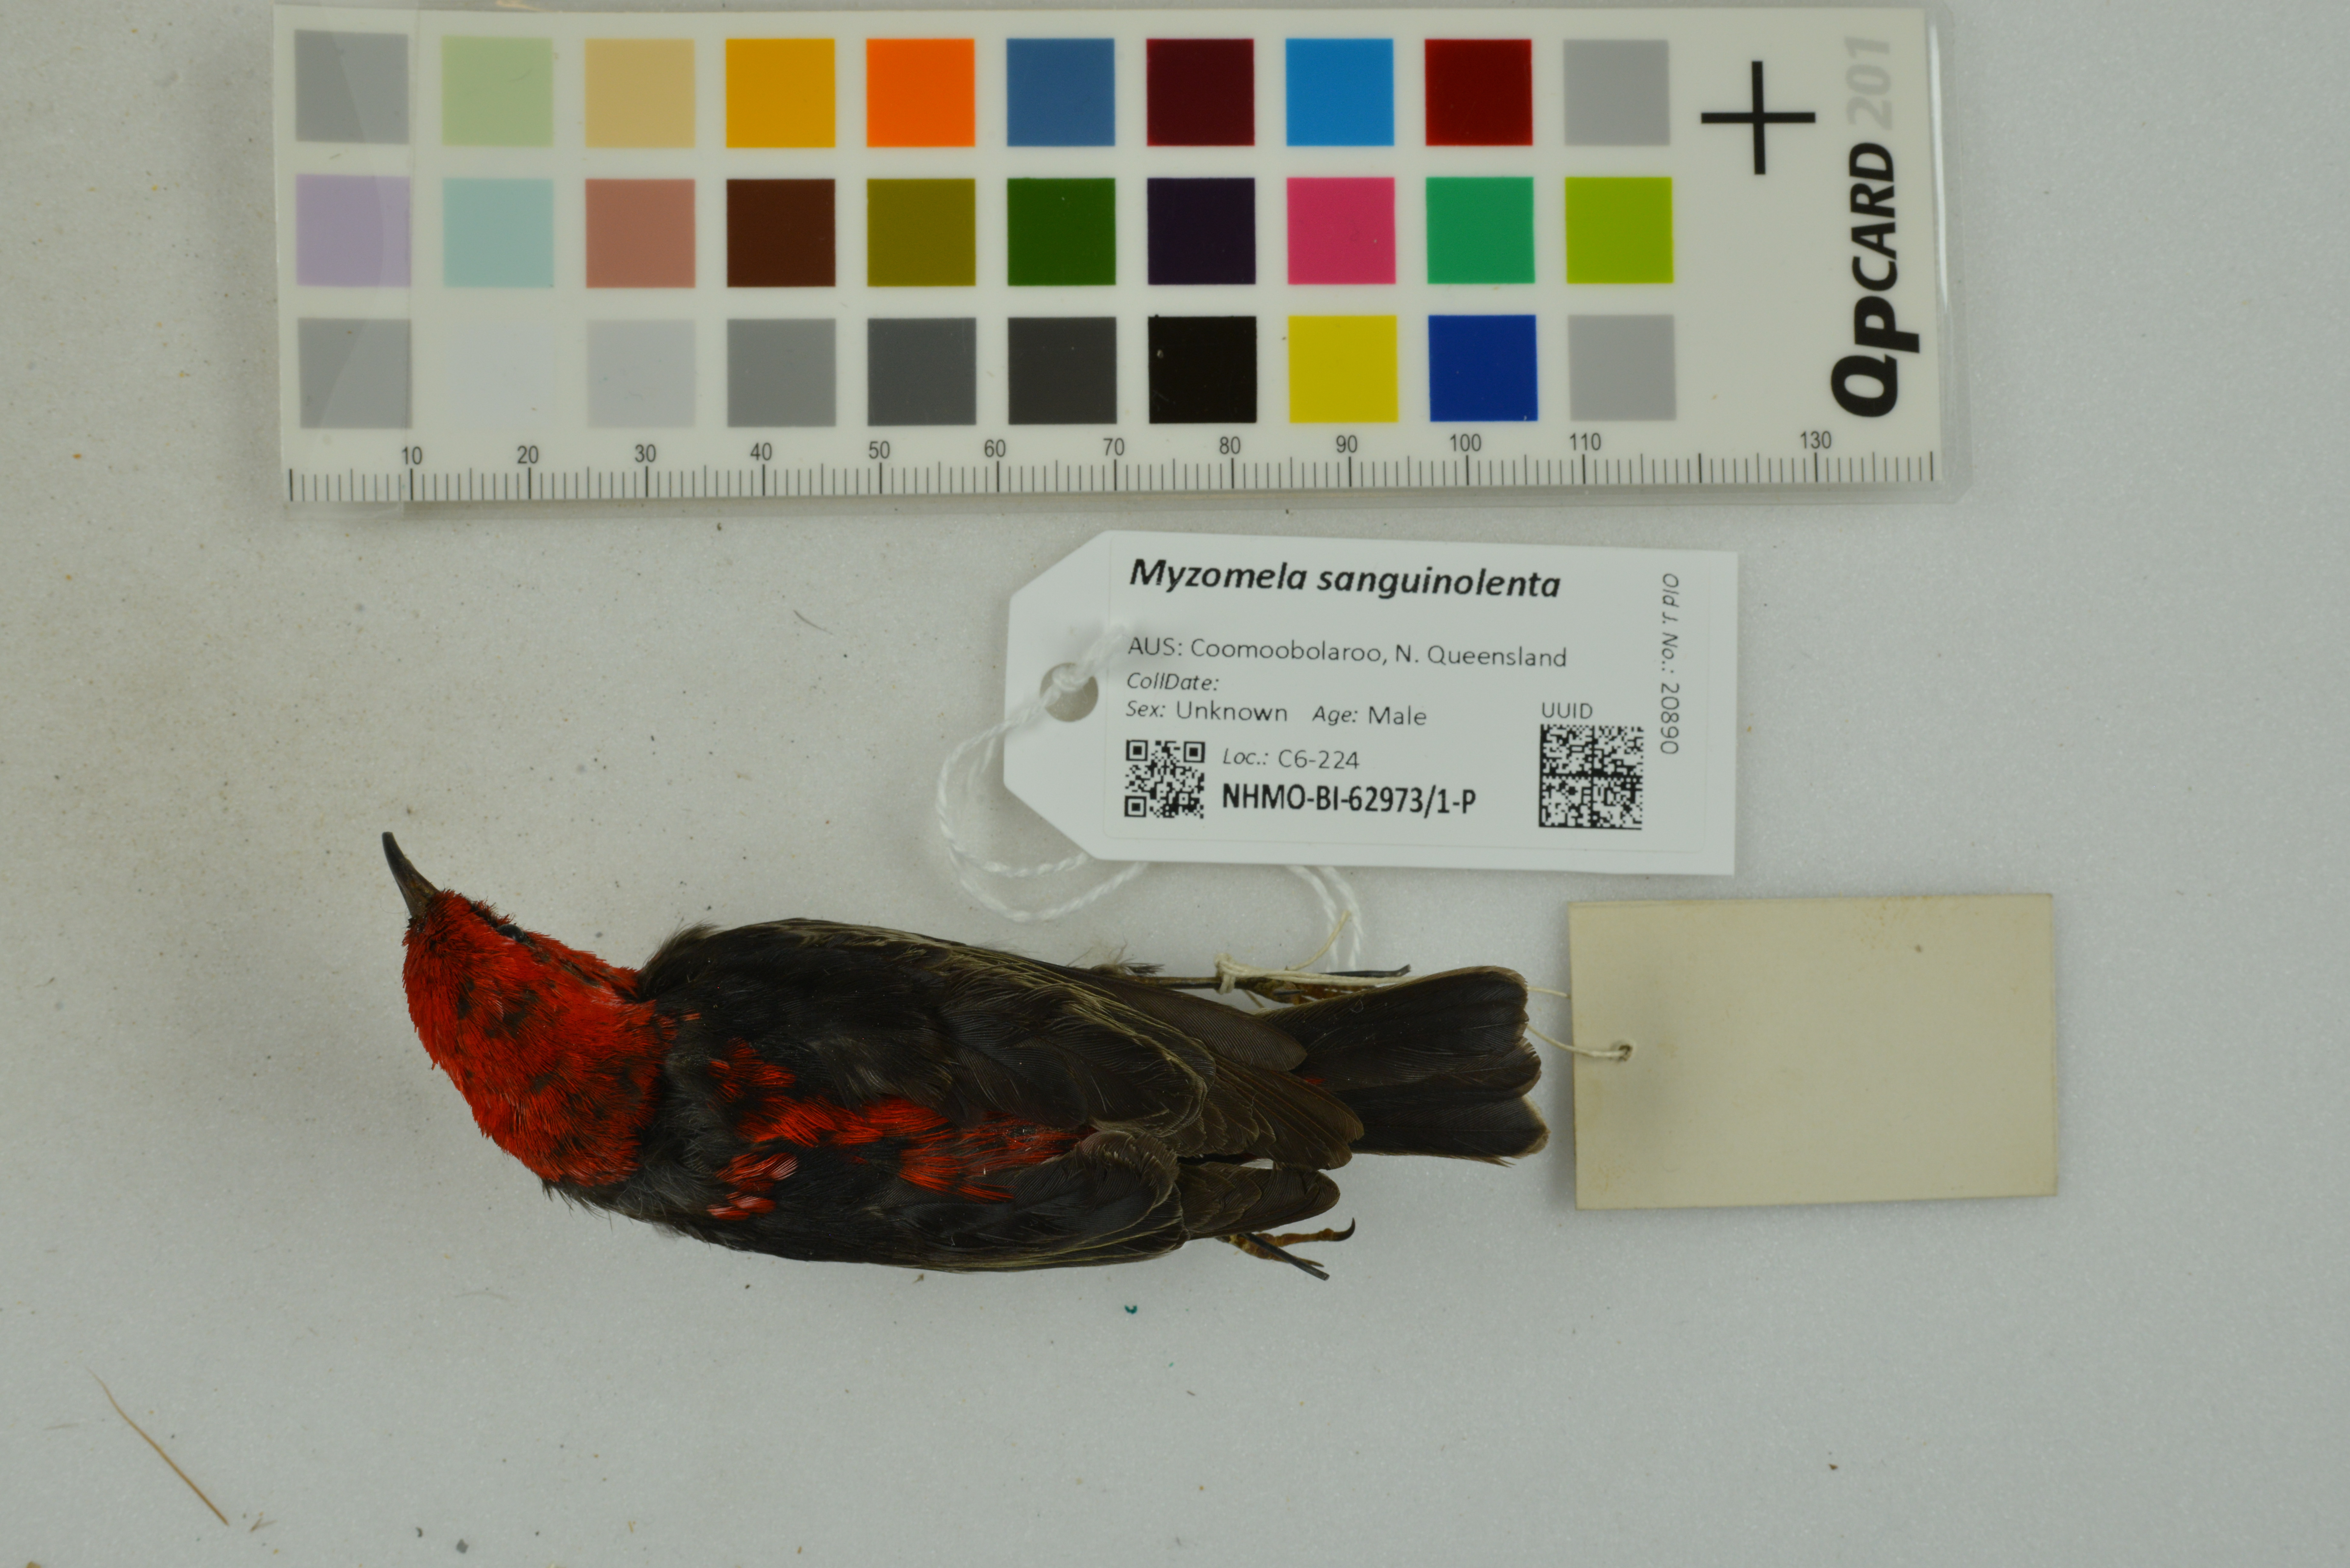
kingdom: Animalia
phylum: Chordata
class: Aves
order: Passeriformes
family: Meliphagidae
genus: Myzomela
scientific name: Myzomela sanguinolenta
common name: Scarlet myzomela
